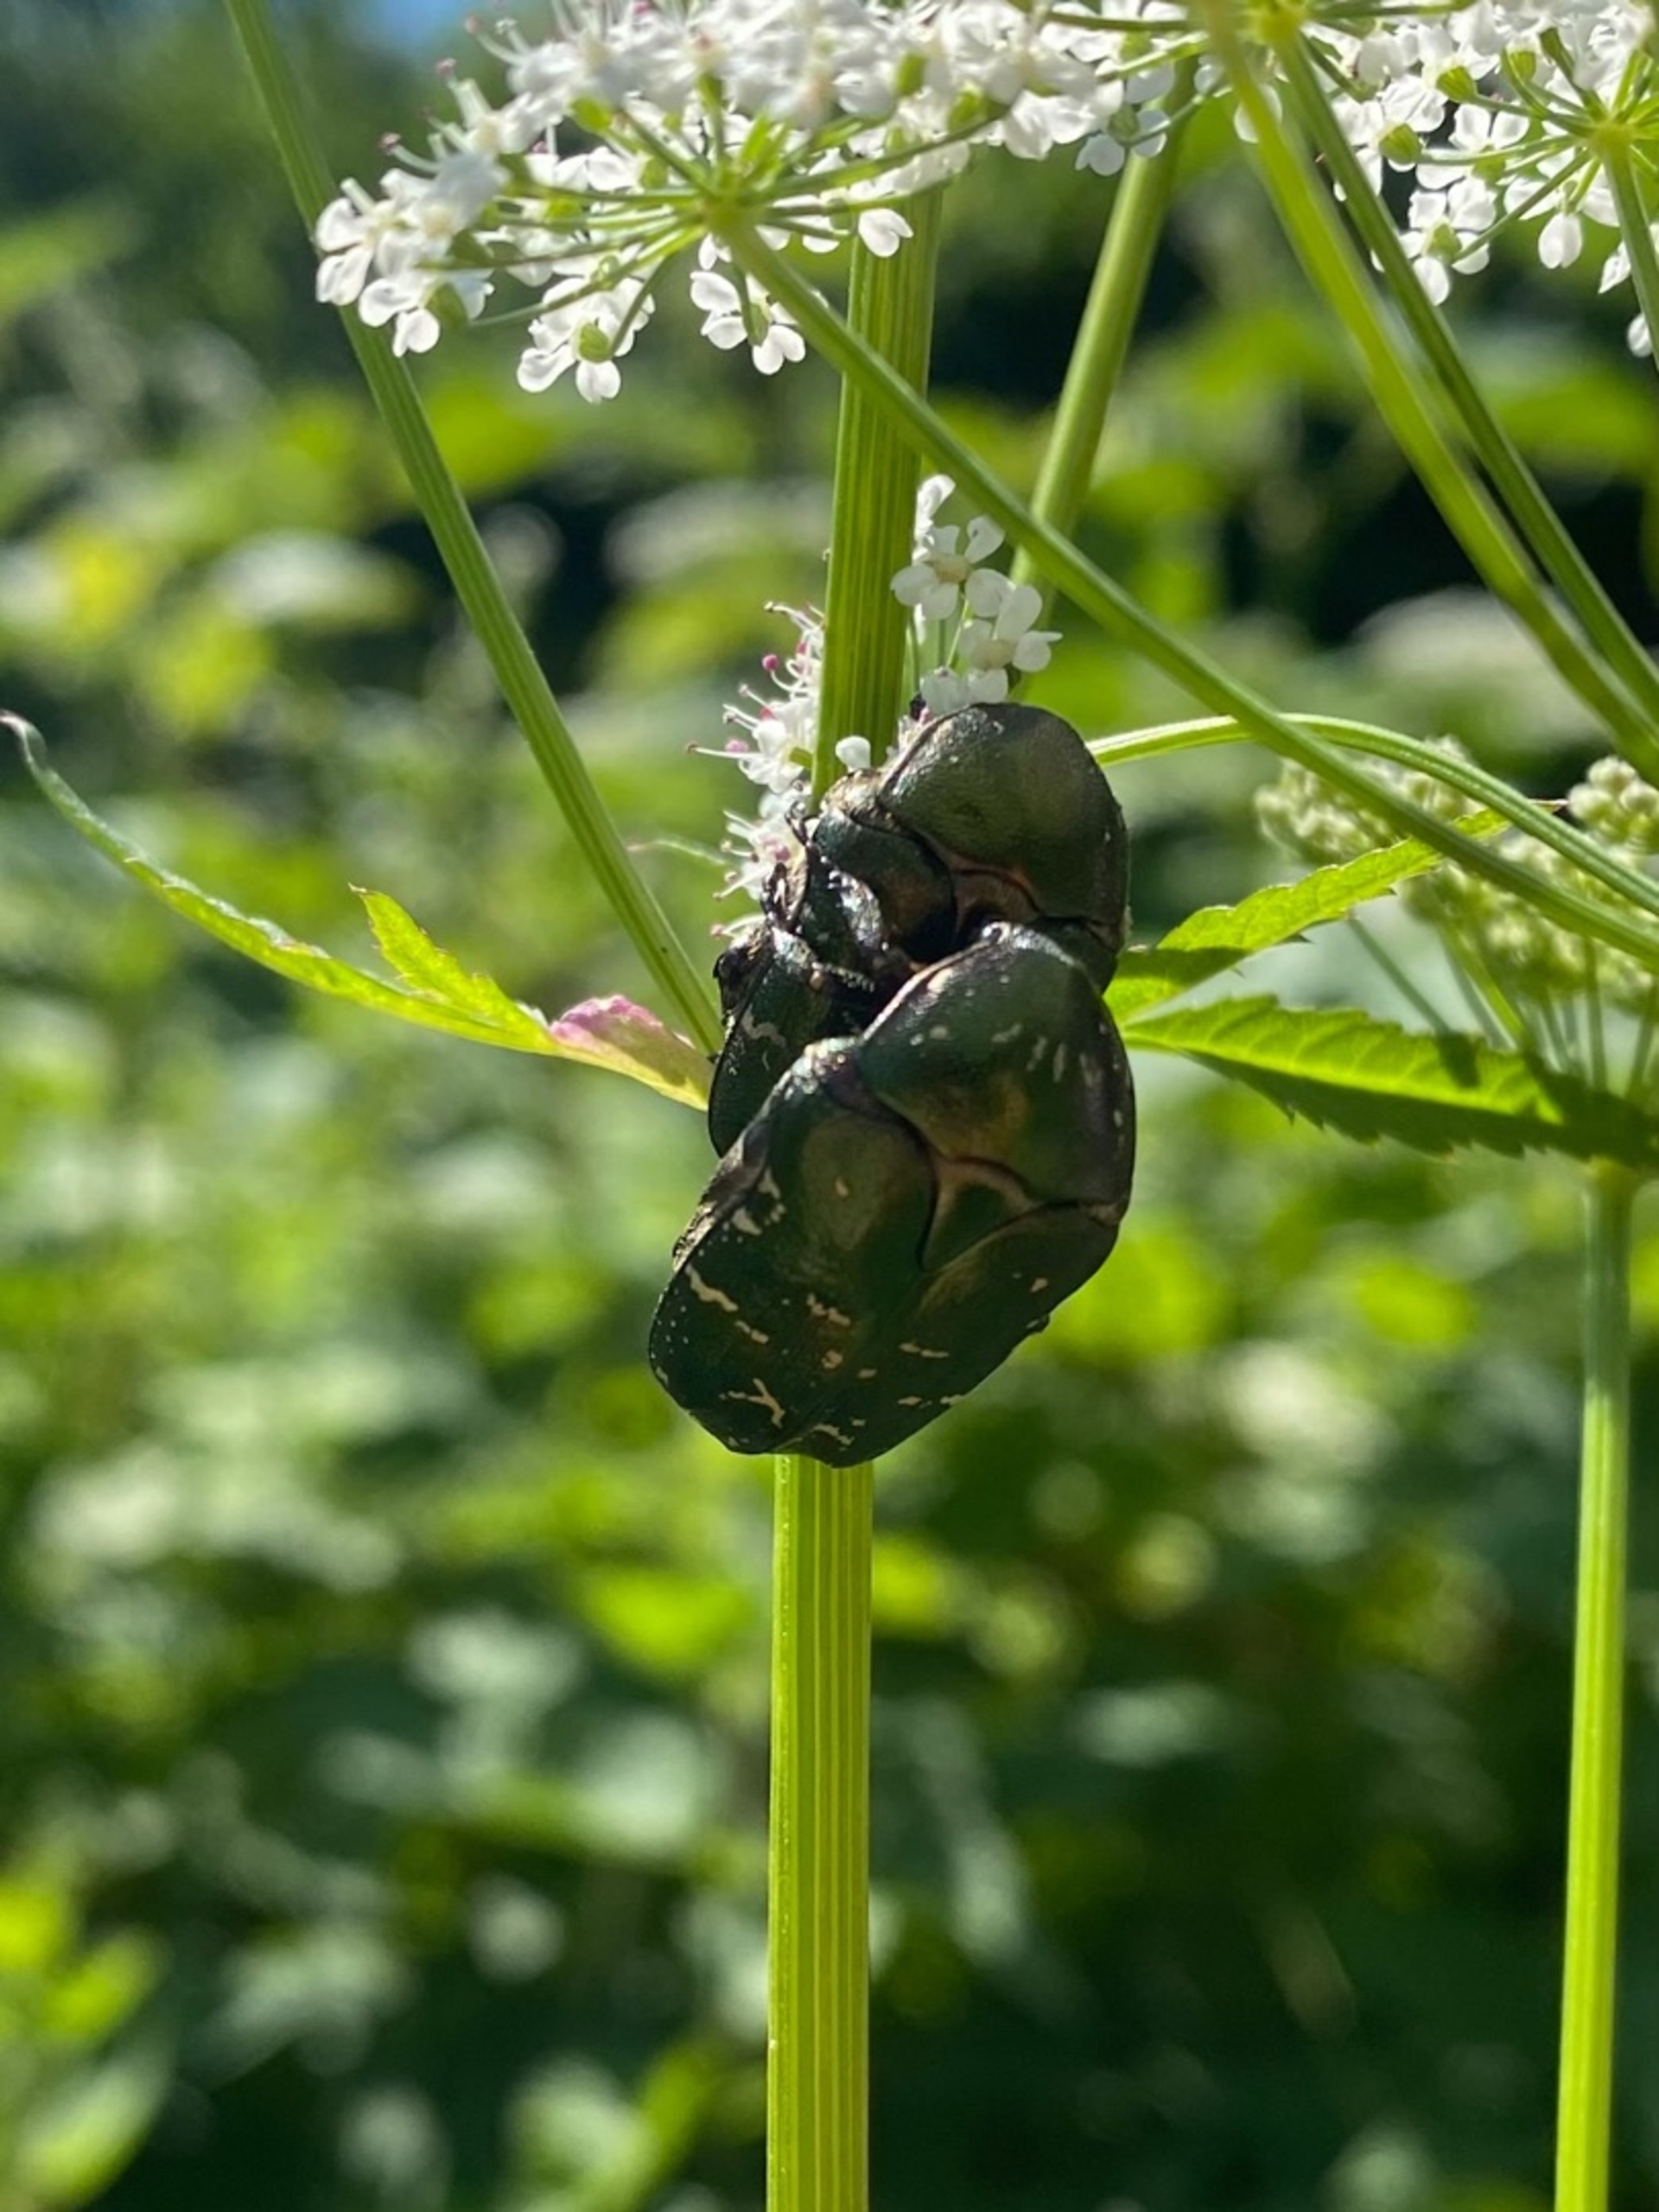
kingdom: Animalia
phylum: Arthropoda
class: Insecta
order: Coleoptera
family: Scarabaeidae
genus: Protaetia
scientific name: Protaetia cuprea
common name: Kobberguldbasse
